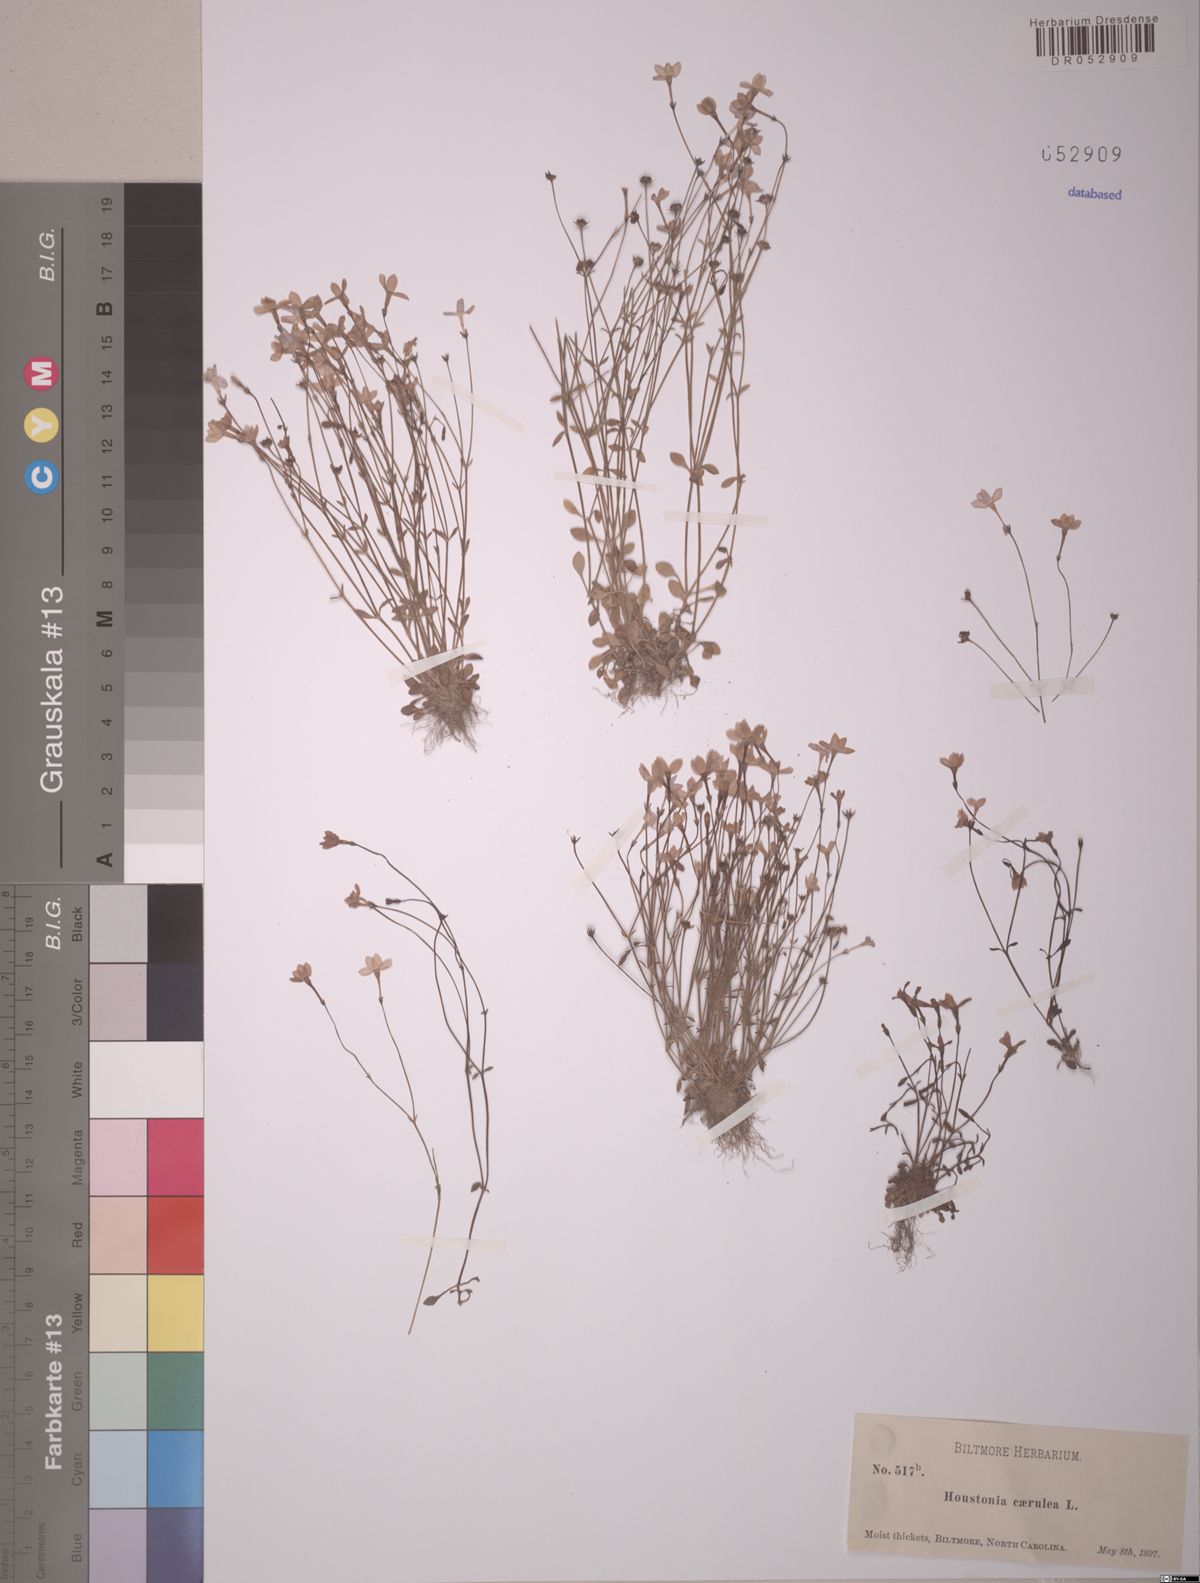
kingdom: Plantae
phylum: Tracheophyta
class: Magnoliopsida
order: Gentianales
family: Rubiaceae
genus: Houstonia
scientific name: Houstonia caerulea
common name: Bluets
